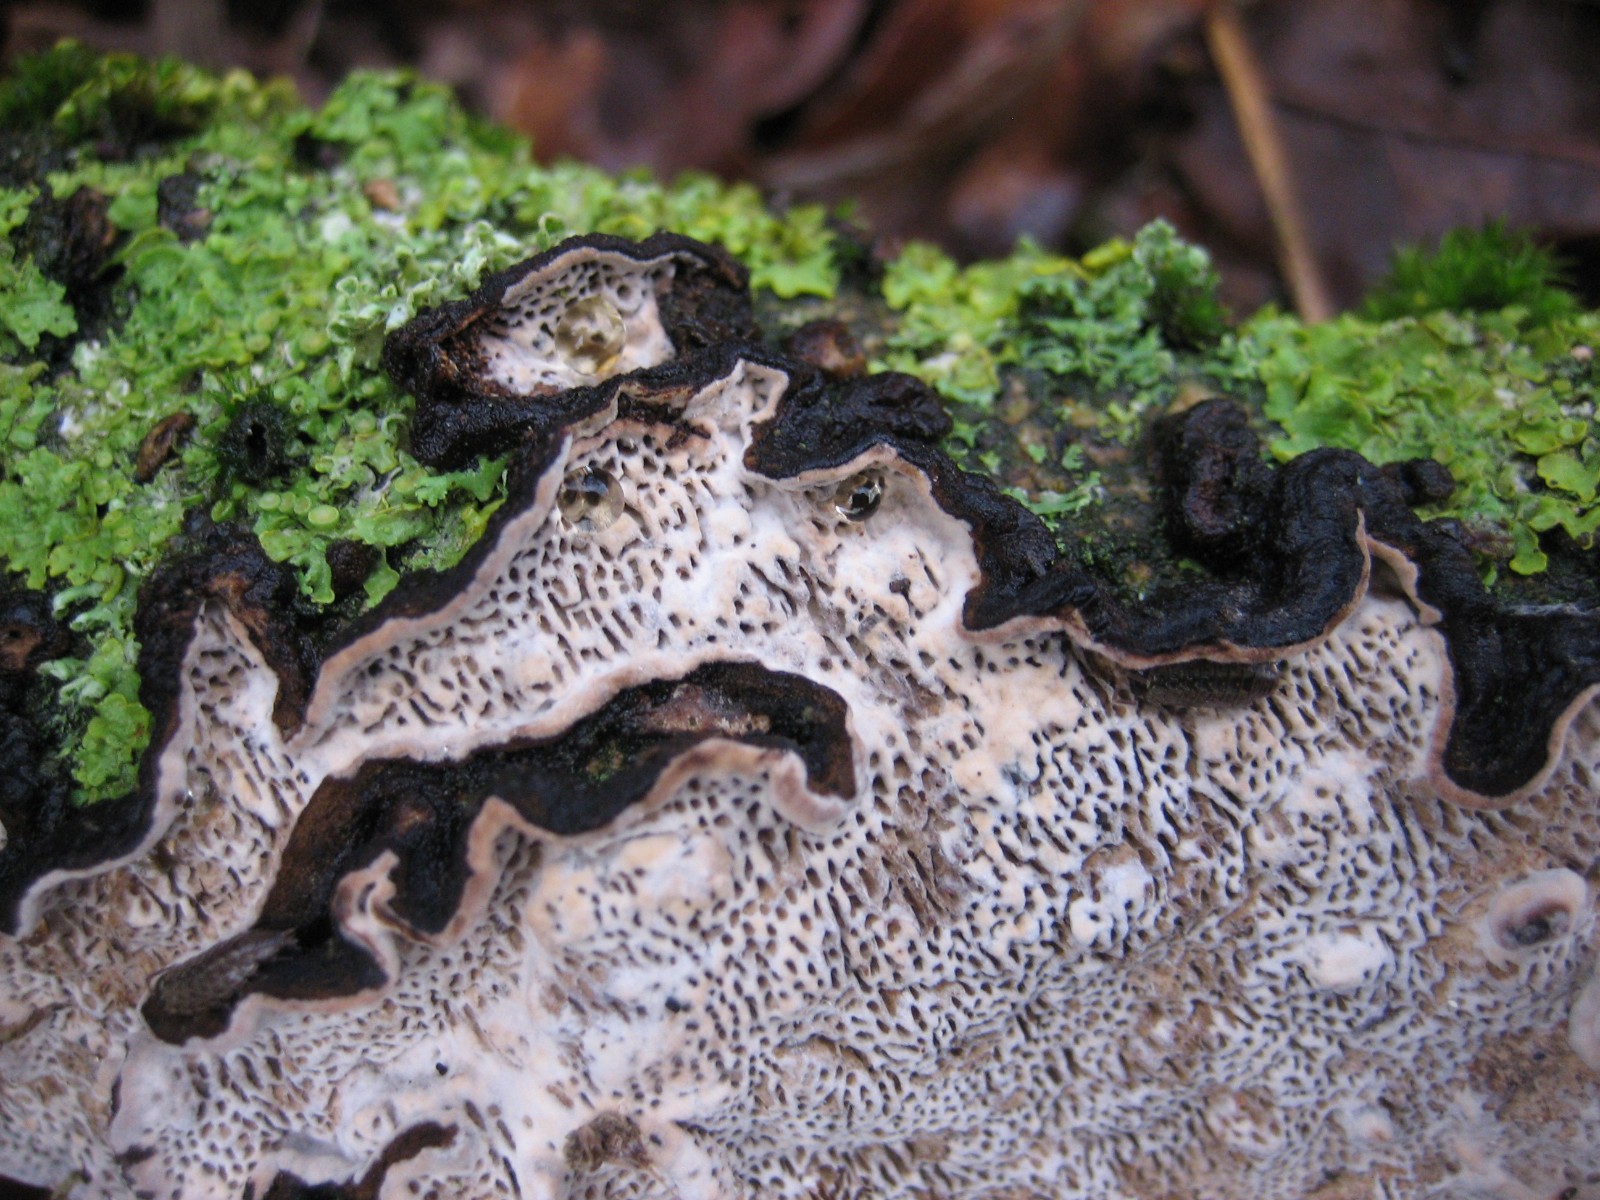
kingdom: Fungi
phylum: Basidiomycota
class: Agaricomycetes
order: Polyporales
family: Polyporaceae
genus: Podofomes
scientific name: Podofomes mollis
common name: blød begporesvamp
